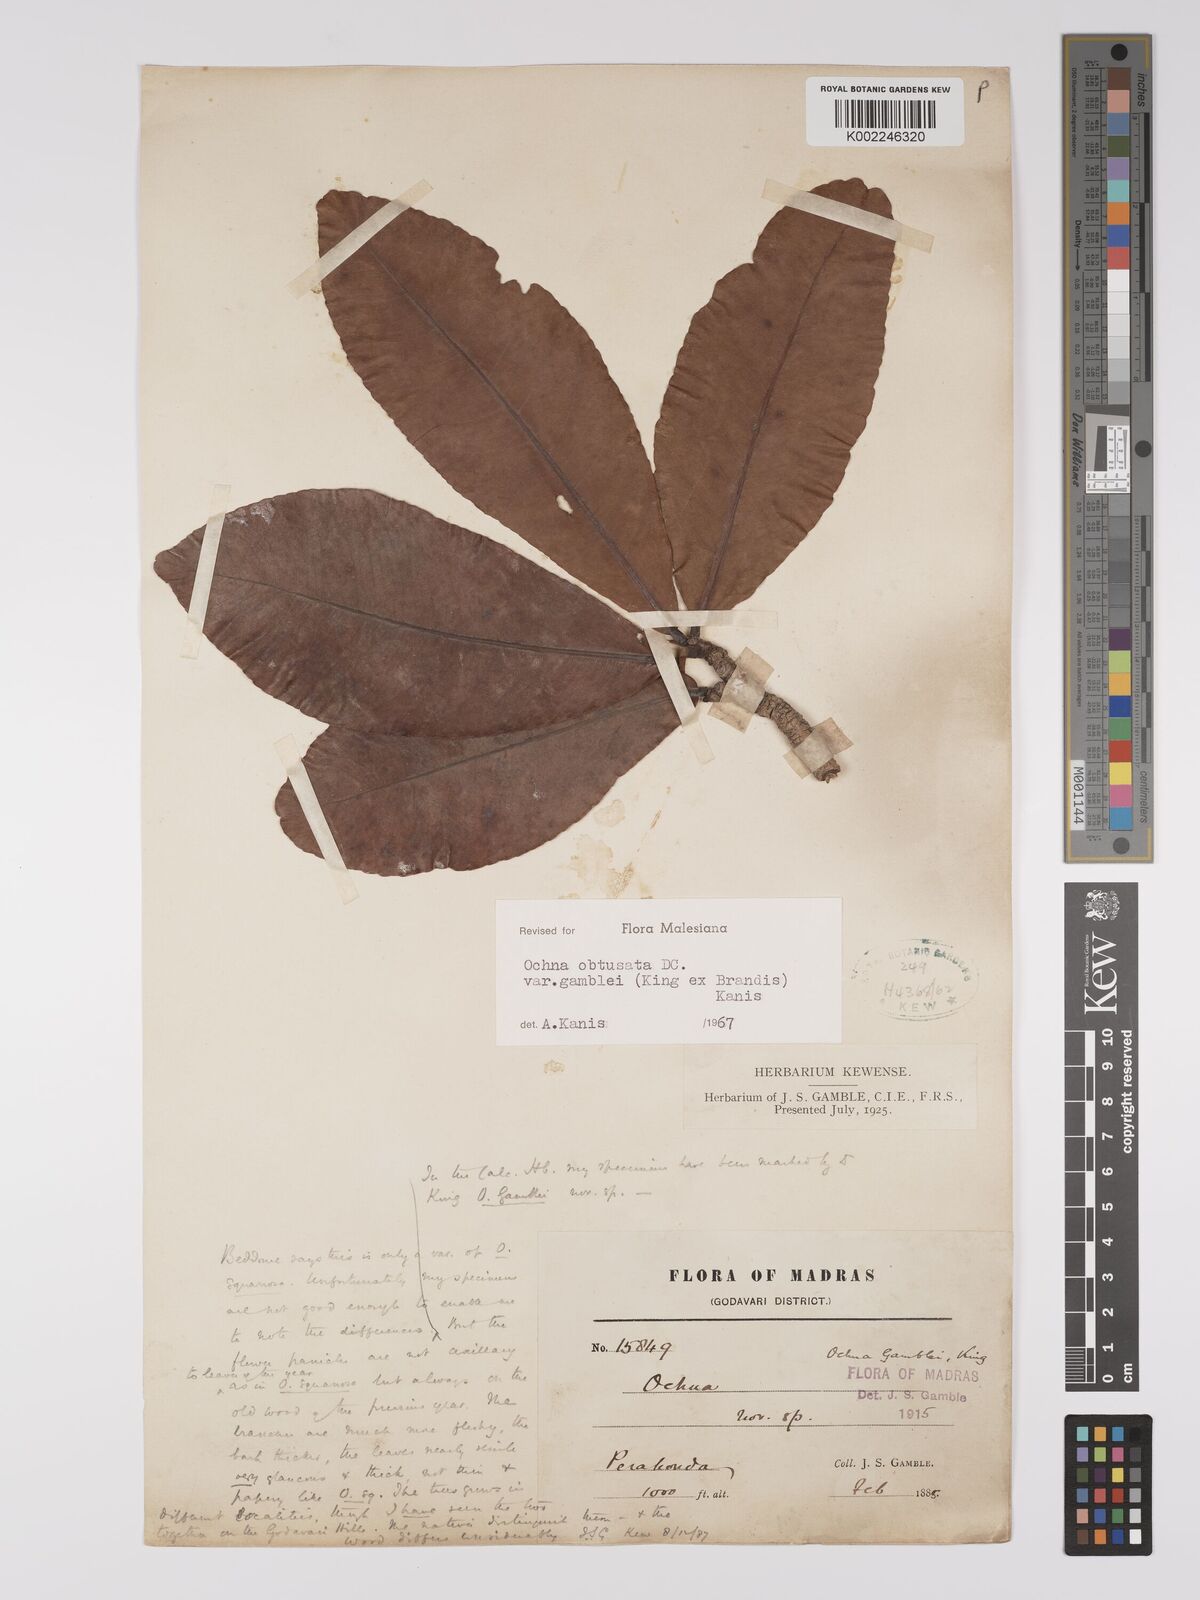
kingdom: Plantae
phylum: Tracheophyta
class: Magnoliopsida
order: Malpighiales
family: Ochnaceae
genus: Ochna
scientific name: Ochna obtusata
